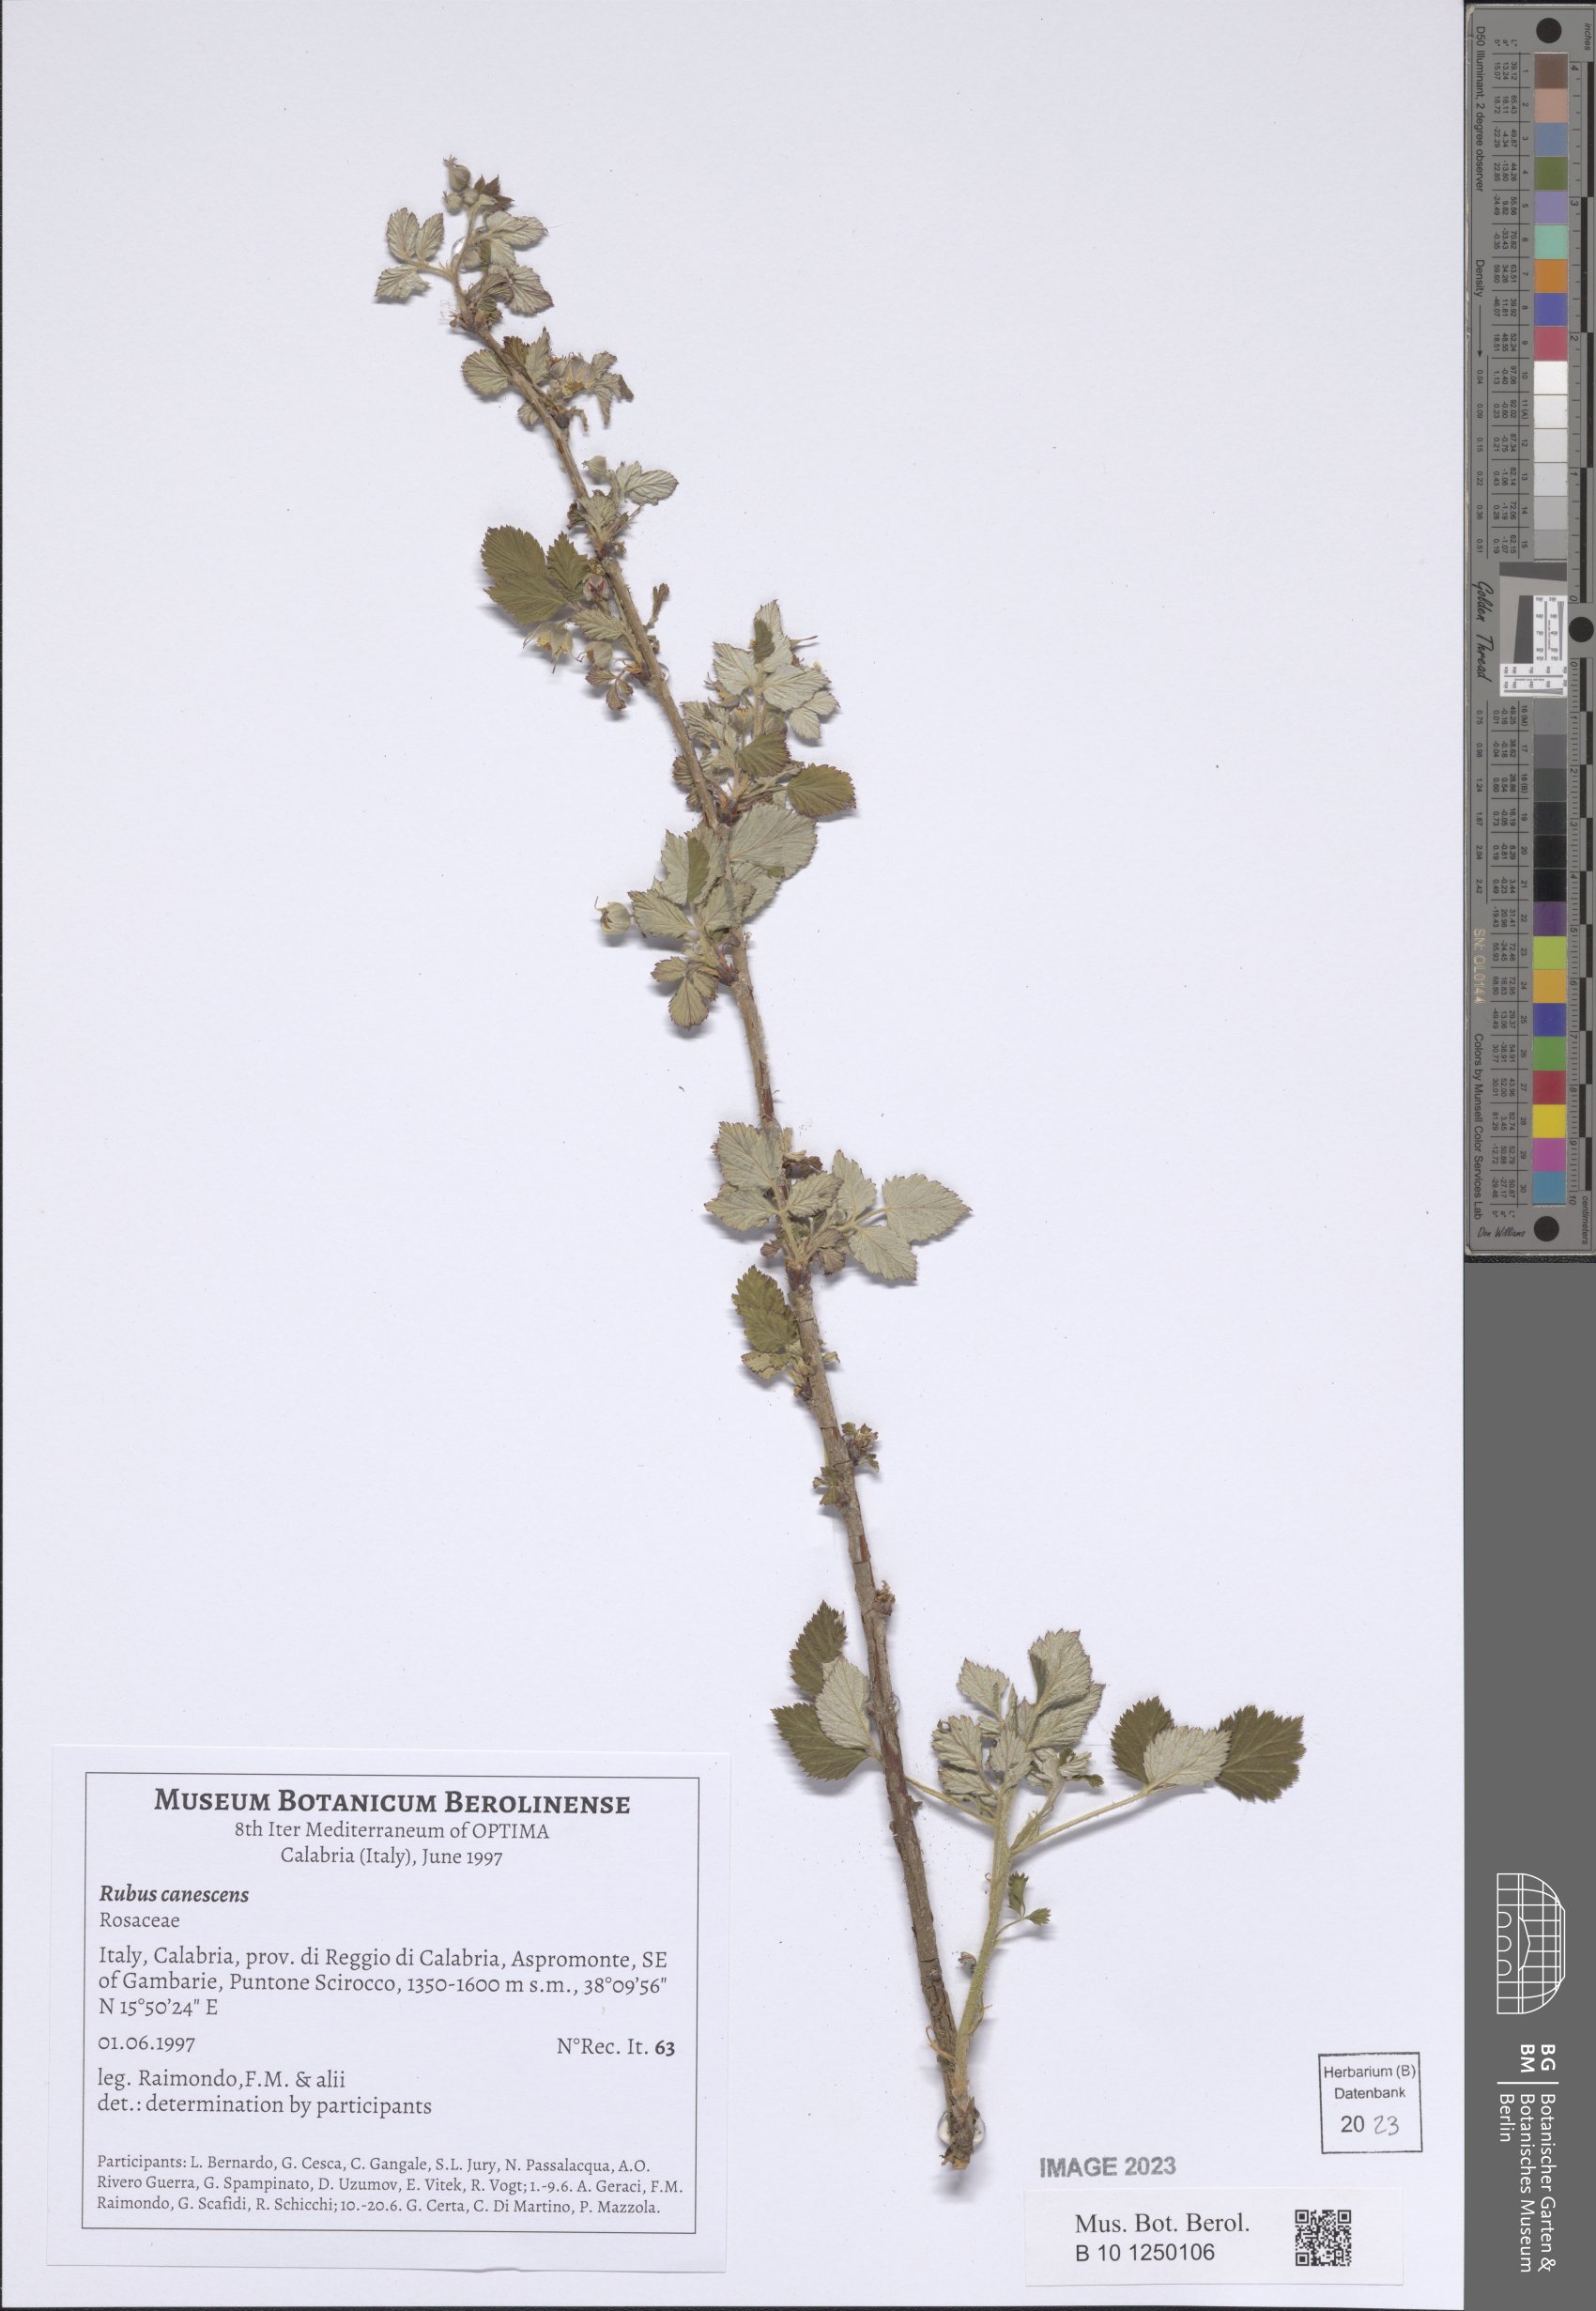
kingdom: Plantae
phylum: Tracheophyta
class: Magnoliopsida
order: Rosales
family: Rosaceae
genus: Rubus
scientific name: Rubus canescens
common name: Wooly blackberry
